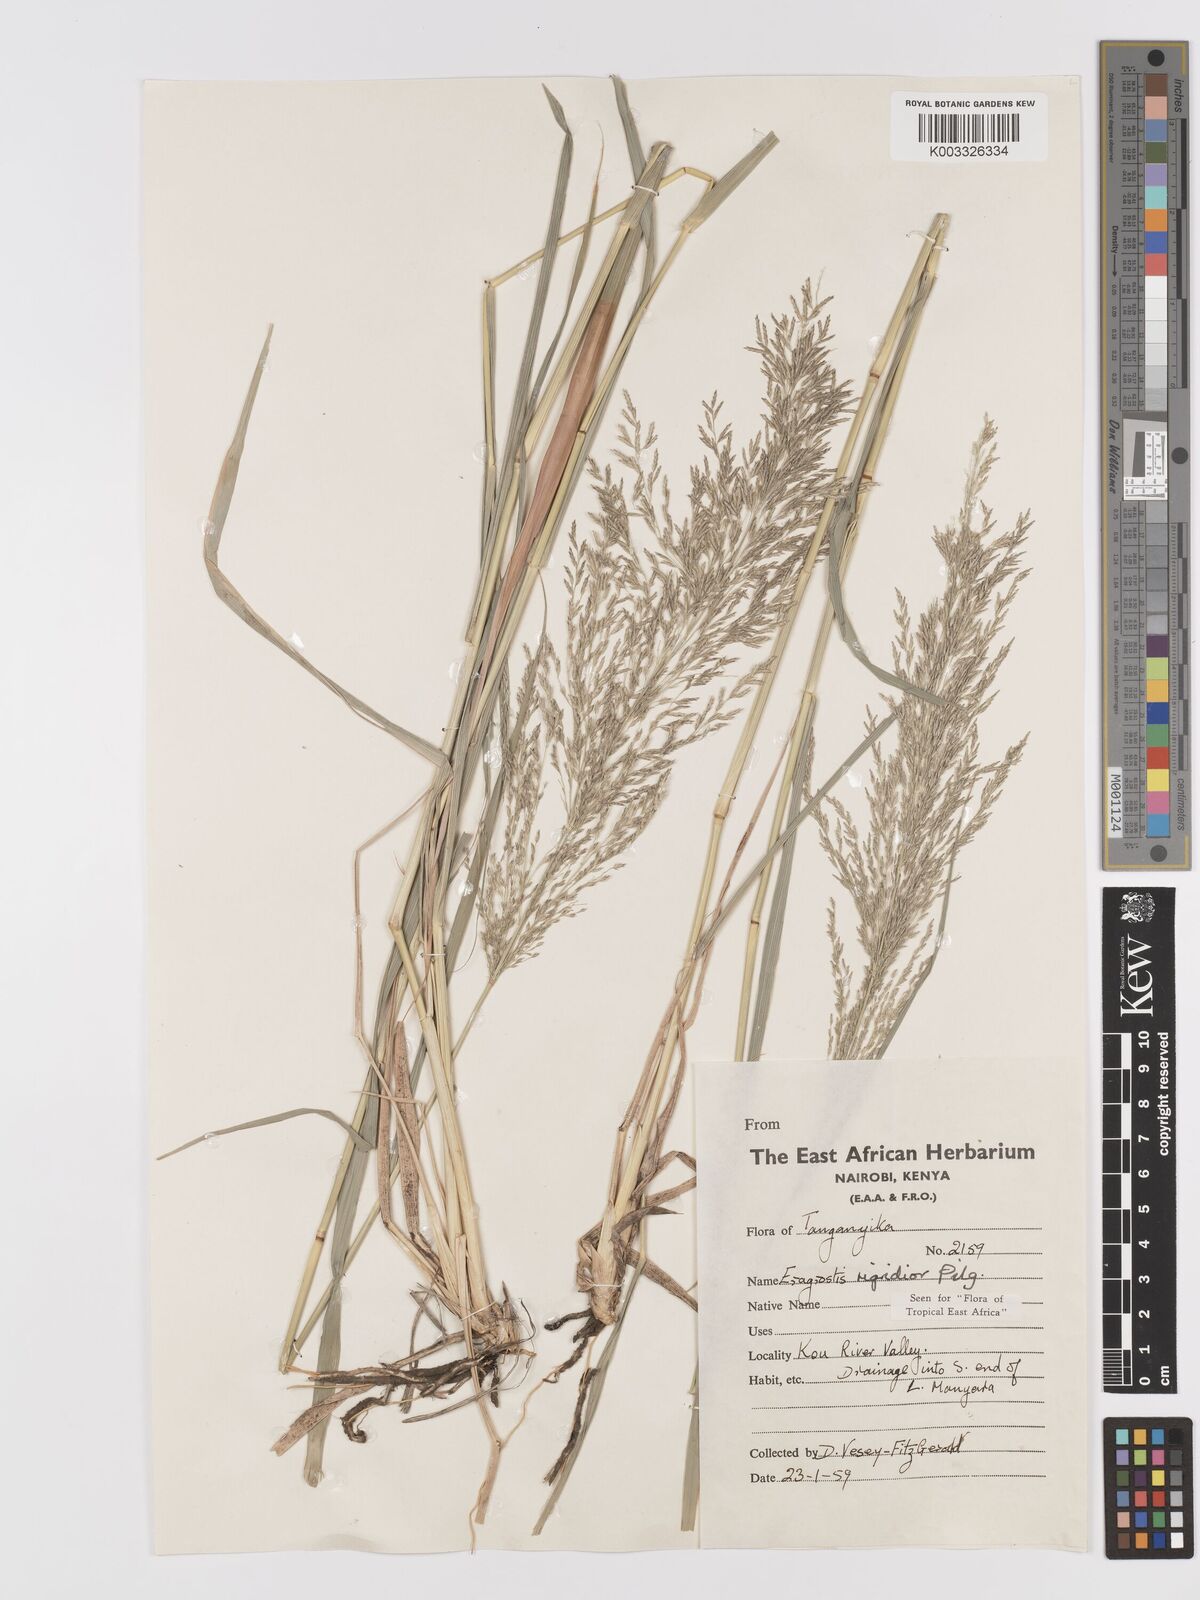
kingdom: Plantae
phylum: Tracheophyta
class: Liliopsida
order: Poales
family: Poaceae
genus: Eragrostis
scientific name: Eragrostis cylindriflora
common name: Cylinderflower lovegrass
